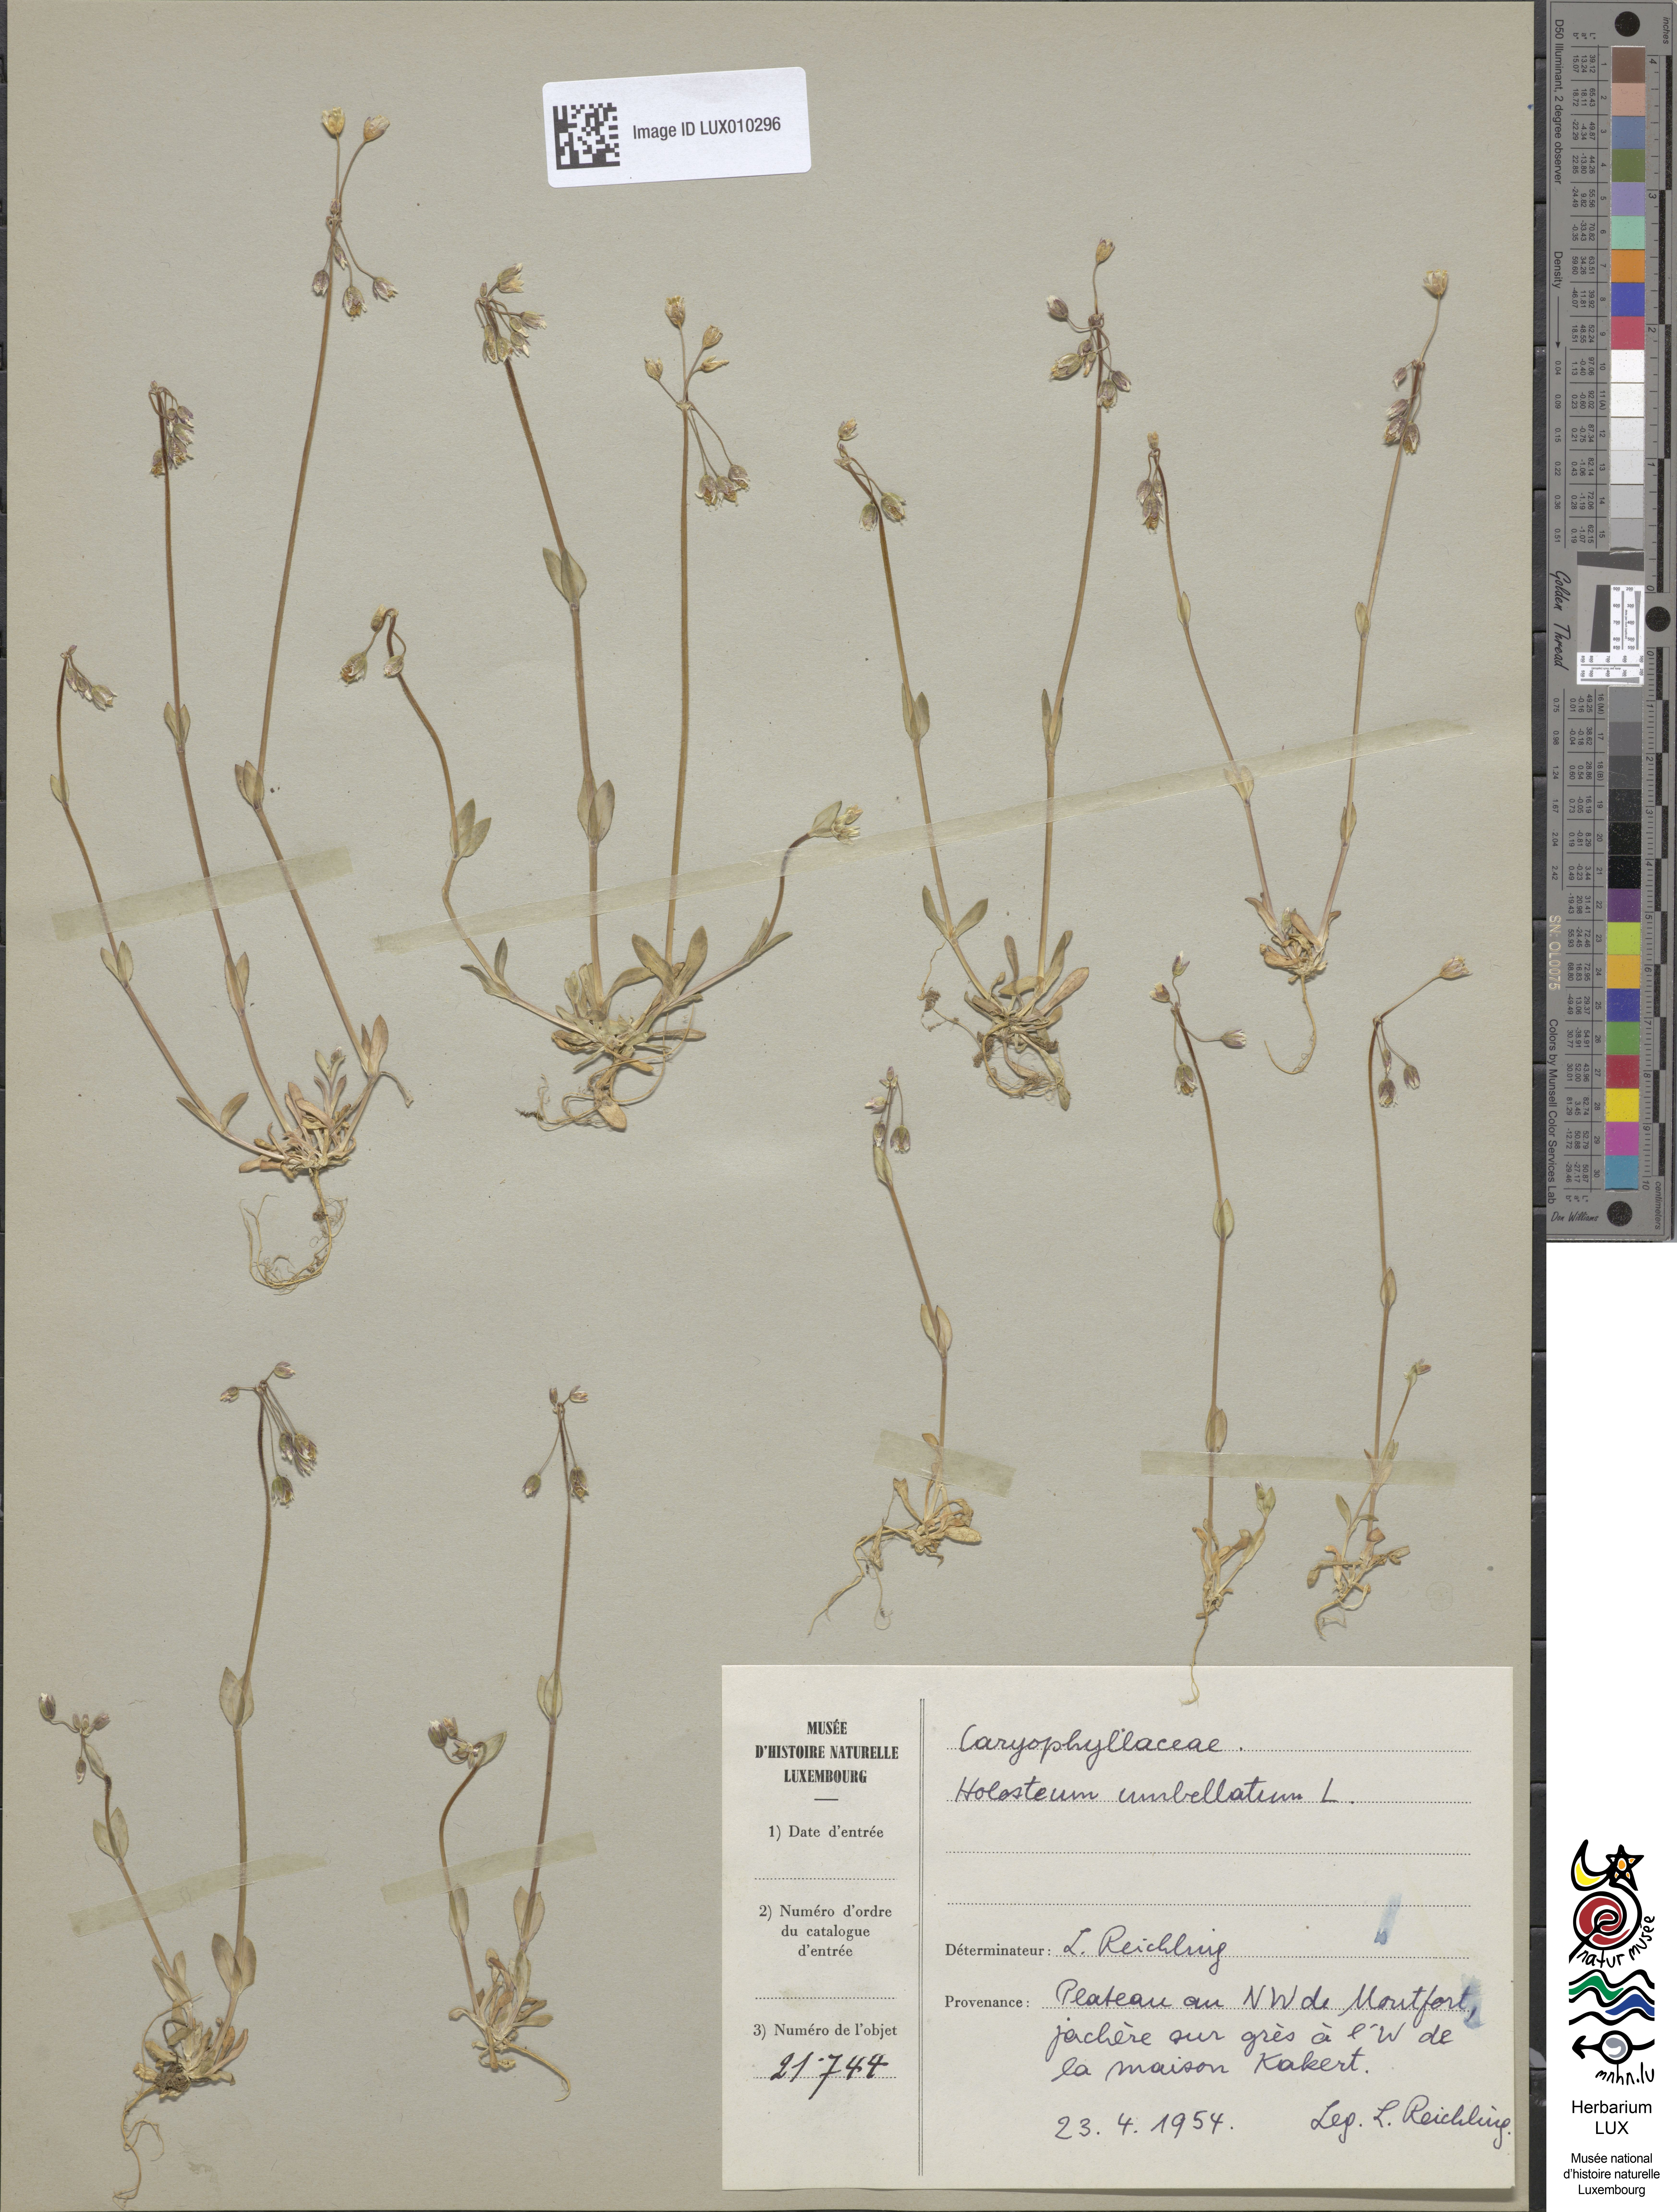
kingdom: Plantae
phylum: Tracheophyta
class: Magnoliopsida
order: Caryophyllales
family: Caryophyllaceae
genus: Holosteum
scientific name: Holosteum umbellatum
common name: Jagged chickweed
